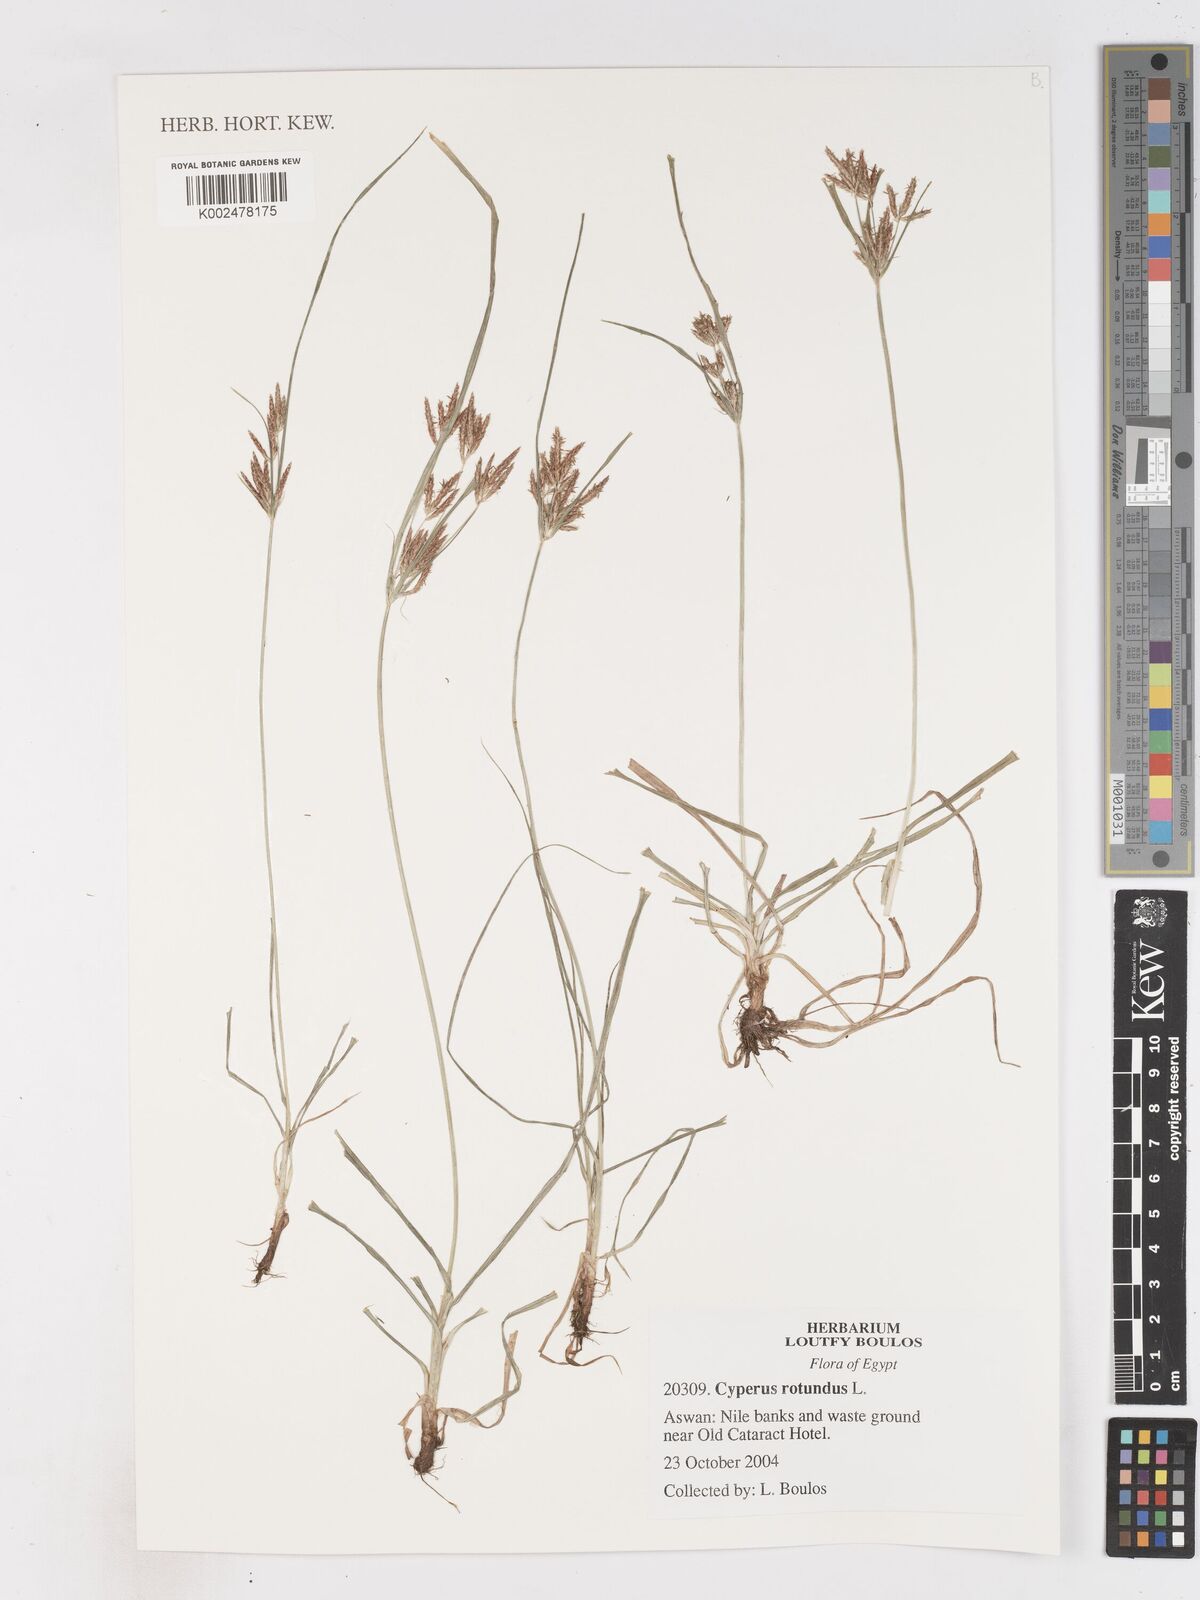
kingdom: Plantae
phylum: Tracheophyta
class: Liliopsida
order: Poales
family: Cyperaceae
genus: Cyperus
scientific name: Cyperus rotundus
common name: Nutgrass
